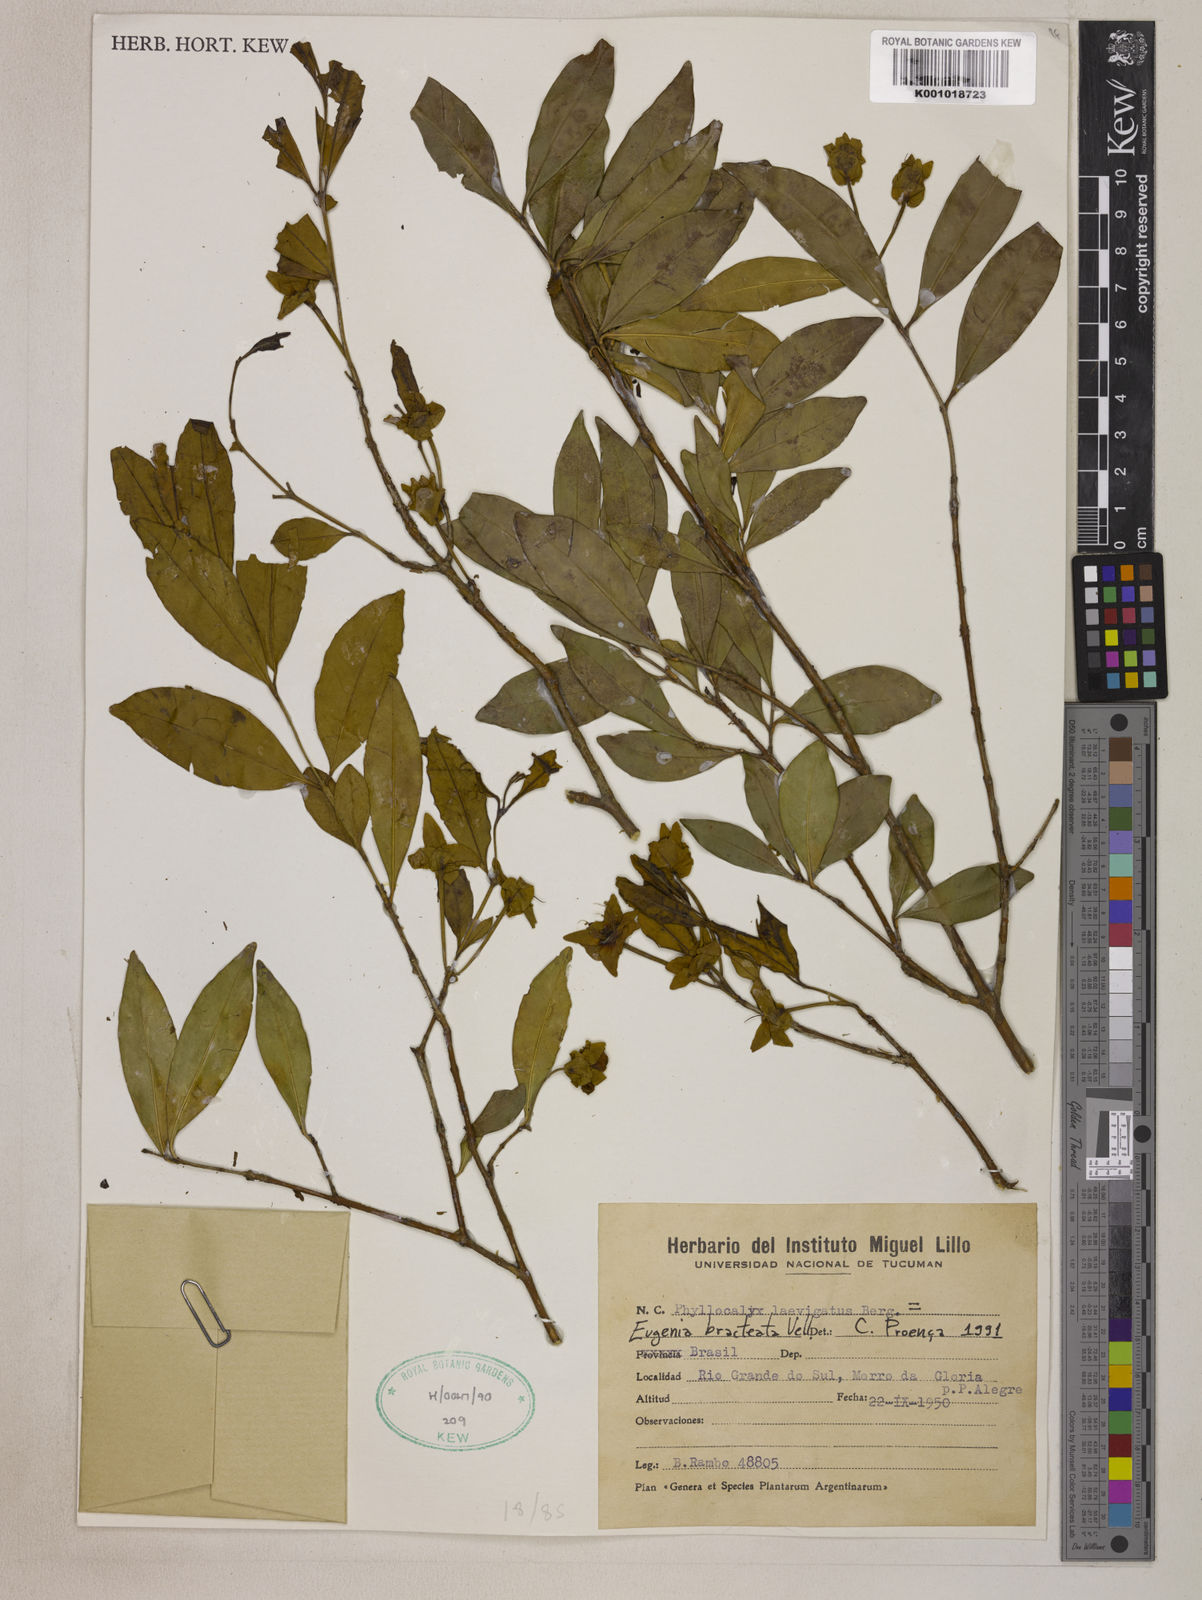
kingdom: Plantae
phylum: Tracheophyta
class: Magnoliopsida
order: Myrtales
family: Myrtaceae
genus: Eugenia
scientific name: Eugenia involucrata
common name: Cherry-of-the-rio grande
